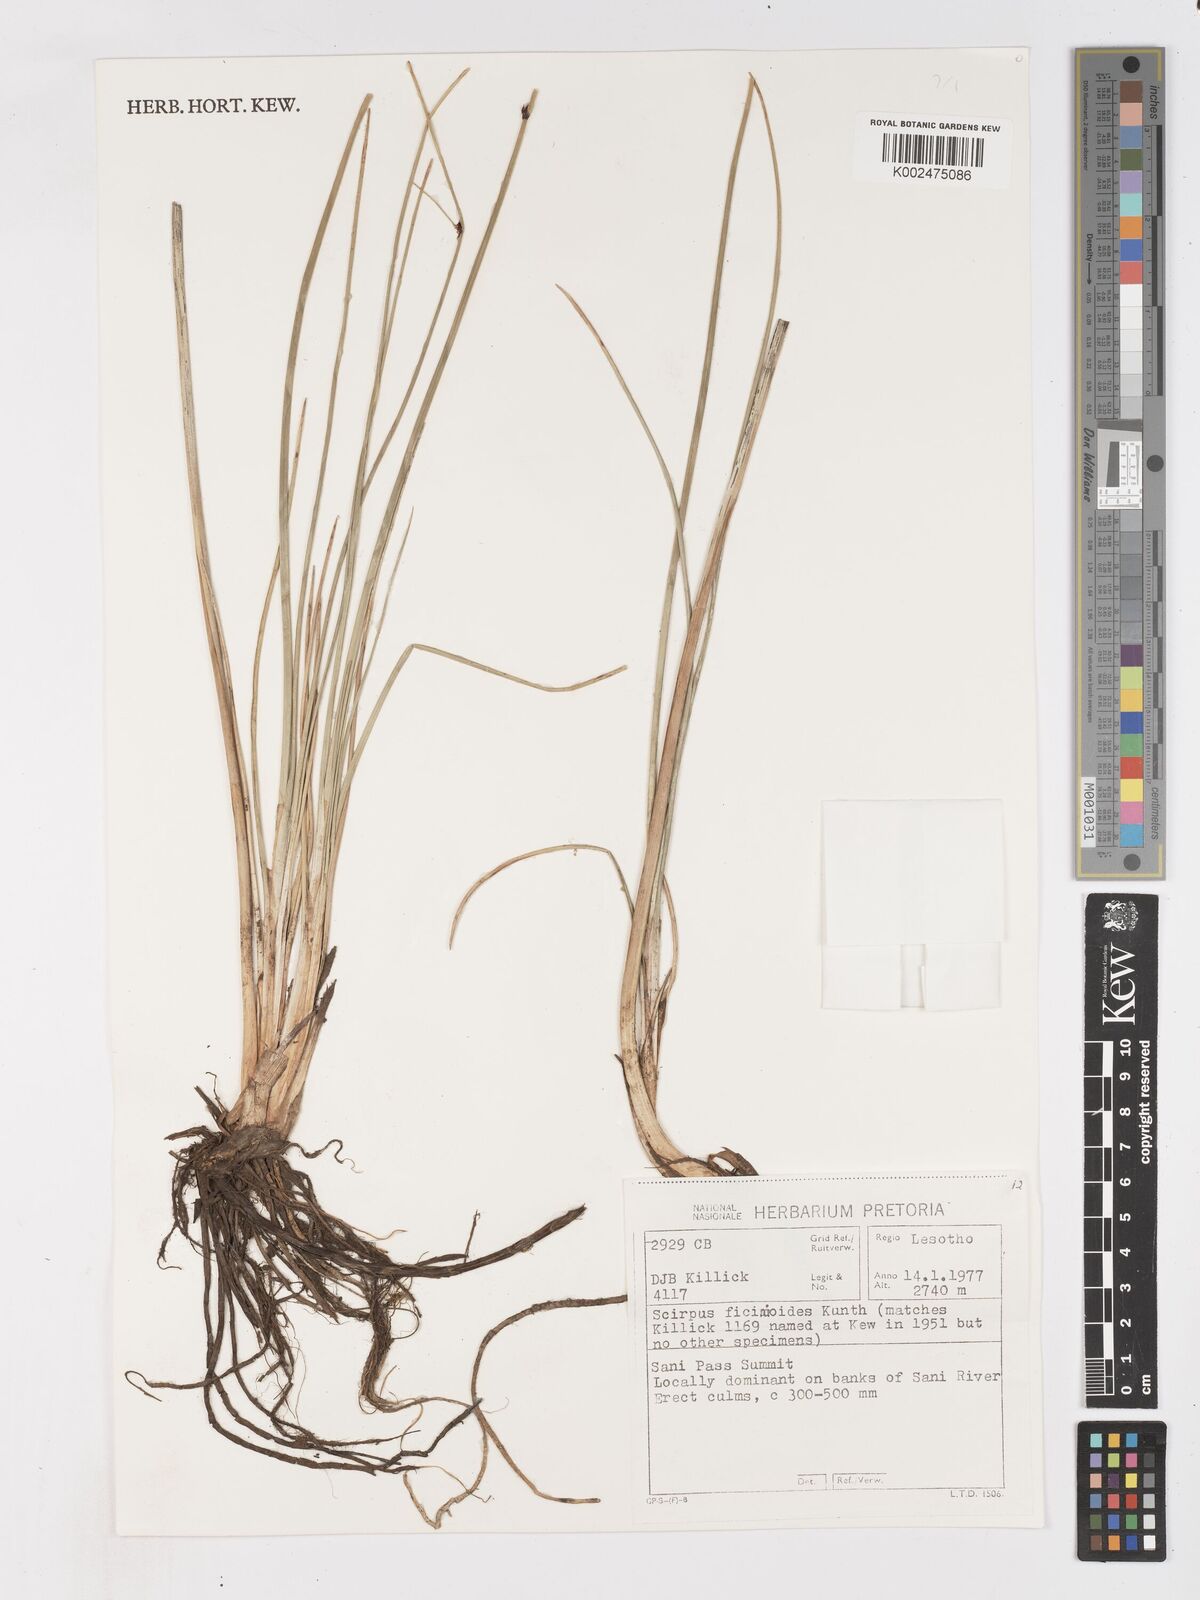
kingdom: Plantae
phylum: Tracheophyta
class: Liliopsida
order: Poales
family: Cyperaceae
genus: Ficinia
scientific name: Ficinia
